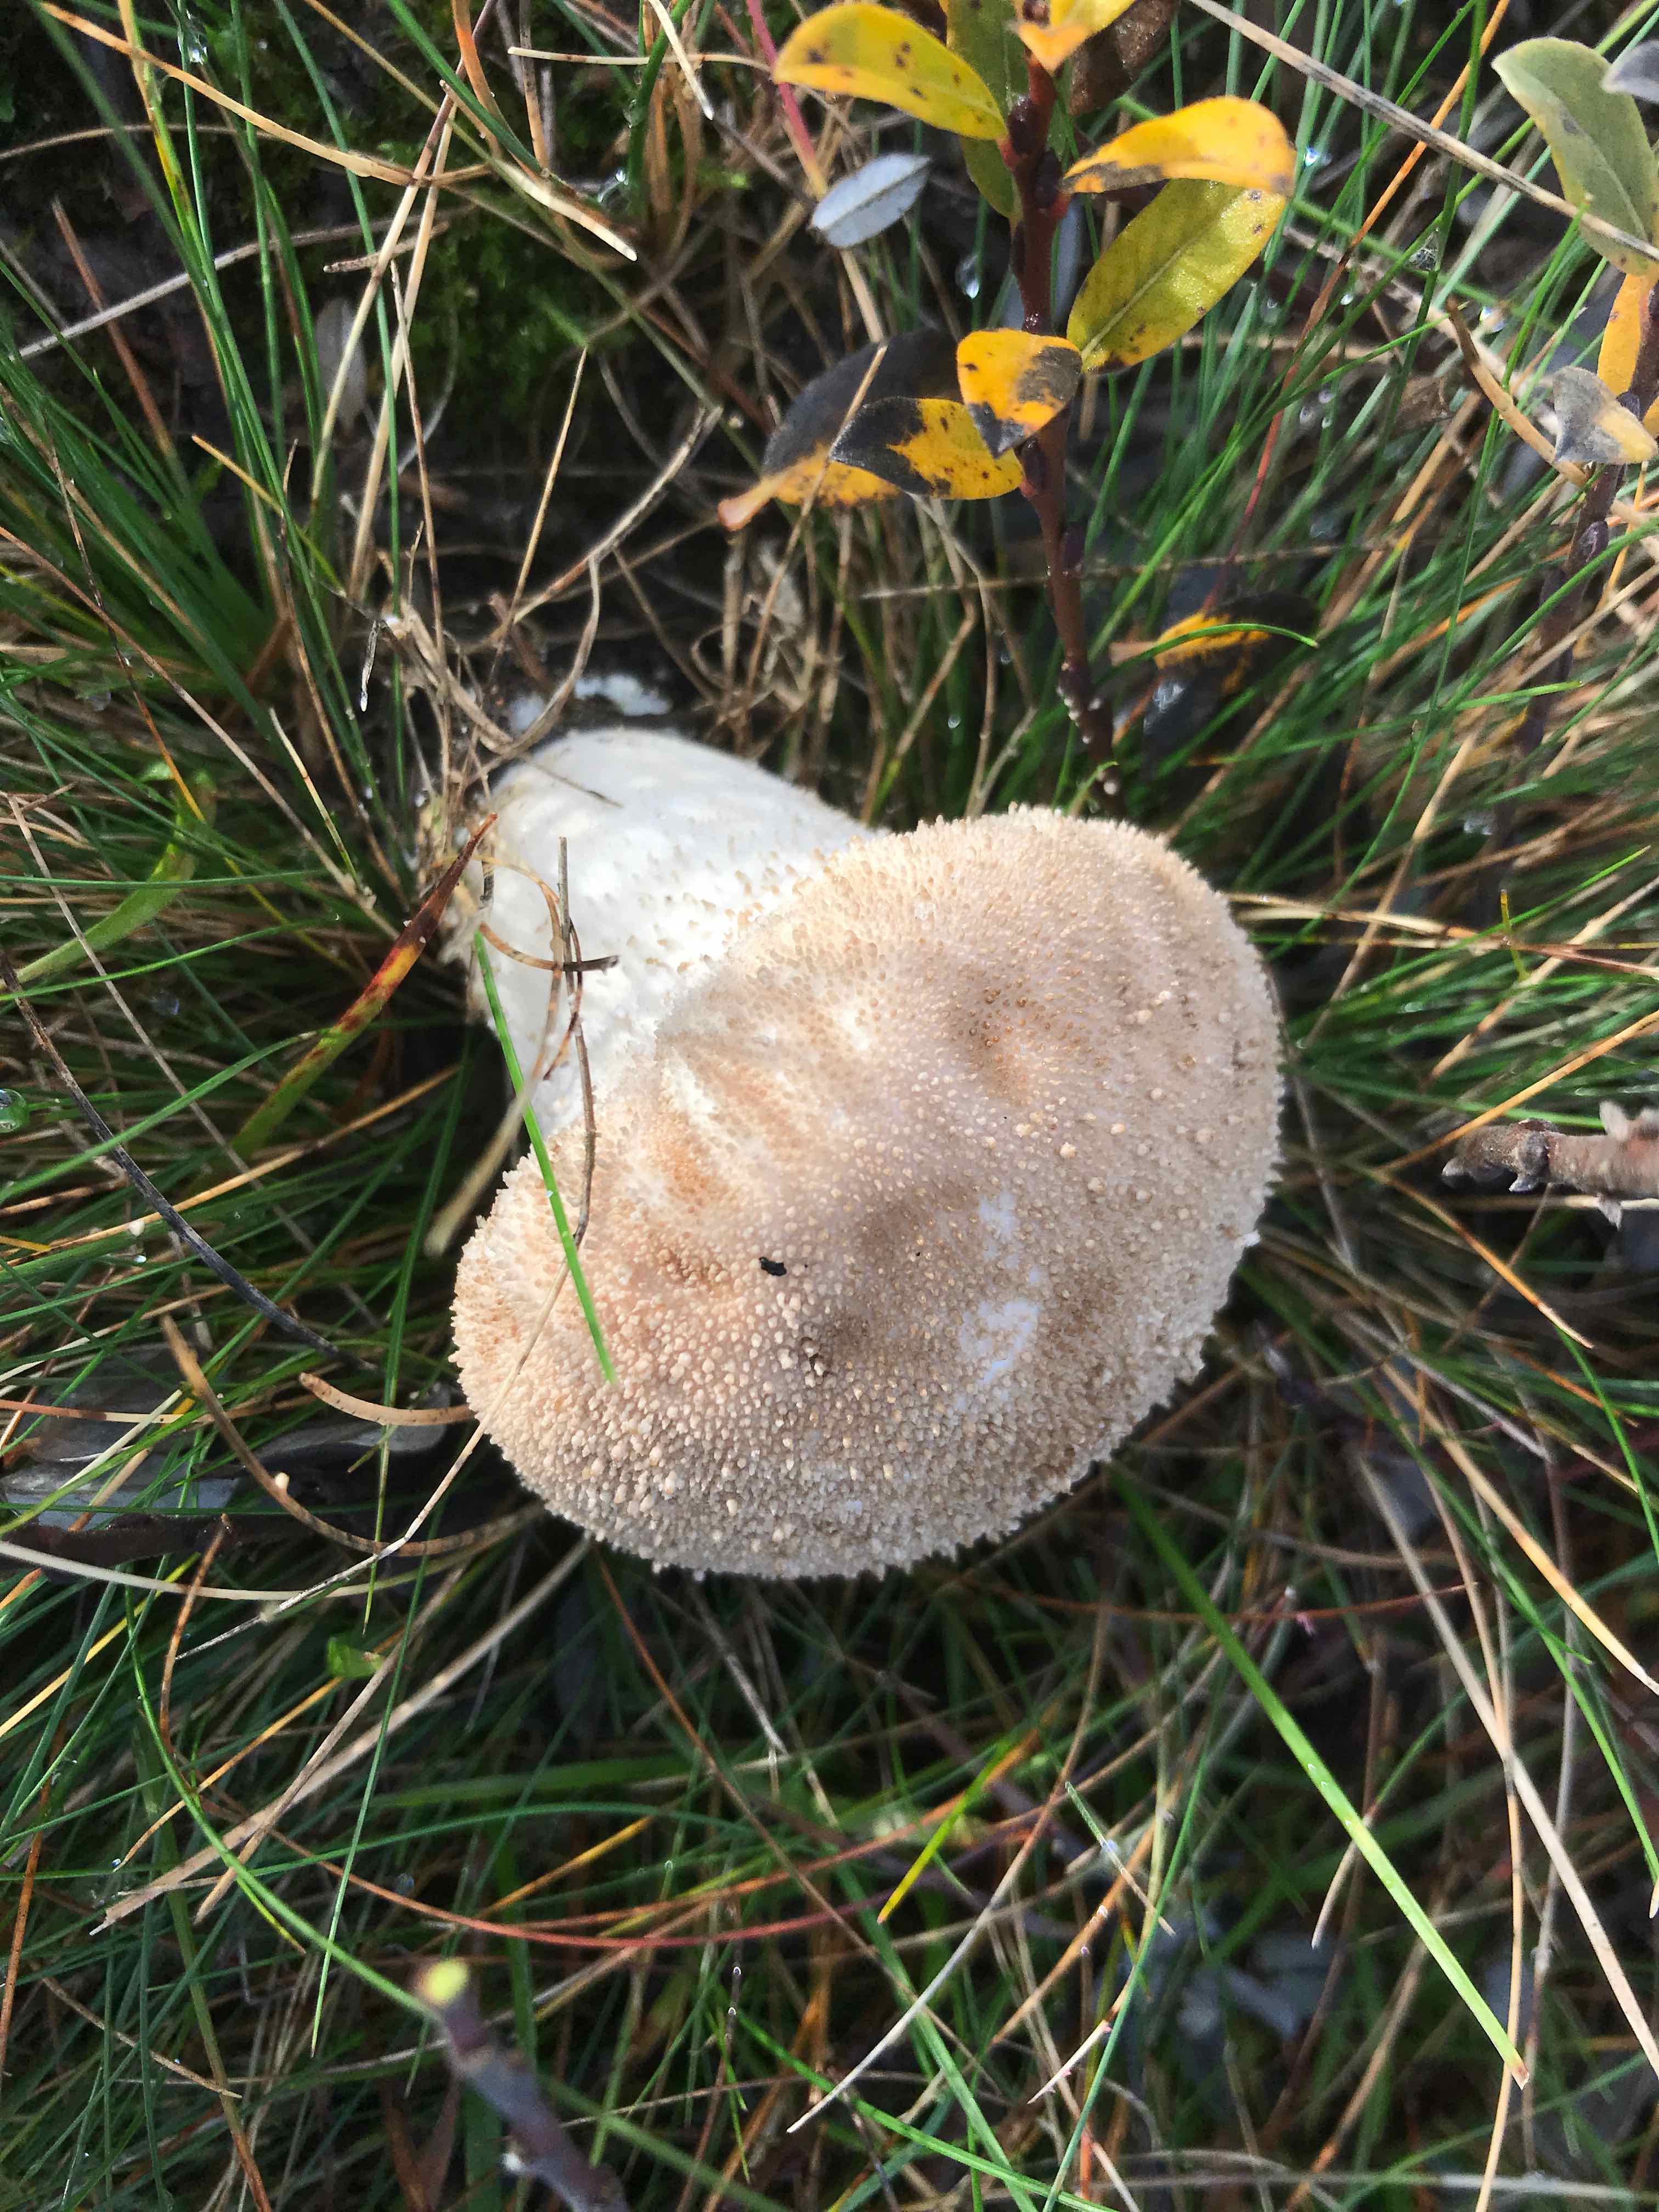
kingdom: Fungi
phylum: Basidiomycota
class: Agaricomycetes
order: Agaricales
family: Lycoperdaceae
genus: Lycoperdon
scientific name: Lycoperdon perlatum
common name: krystal-støvbold
